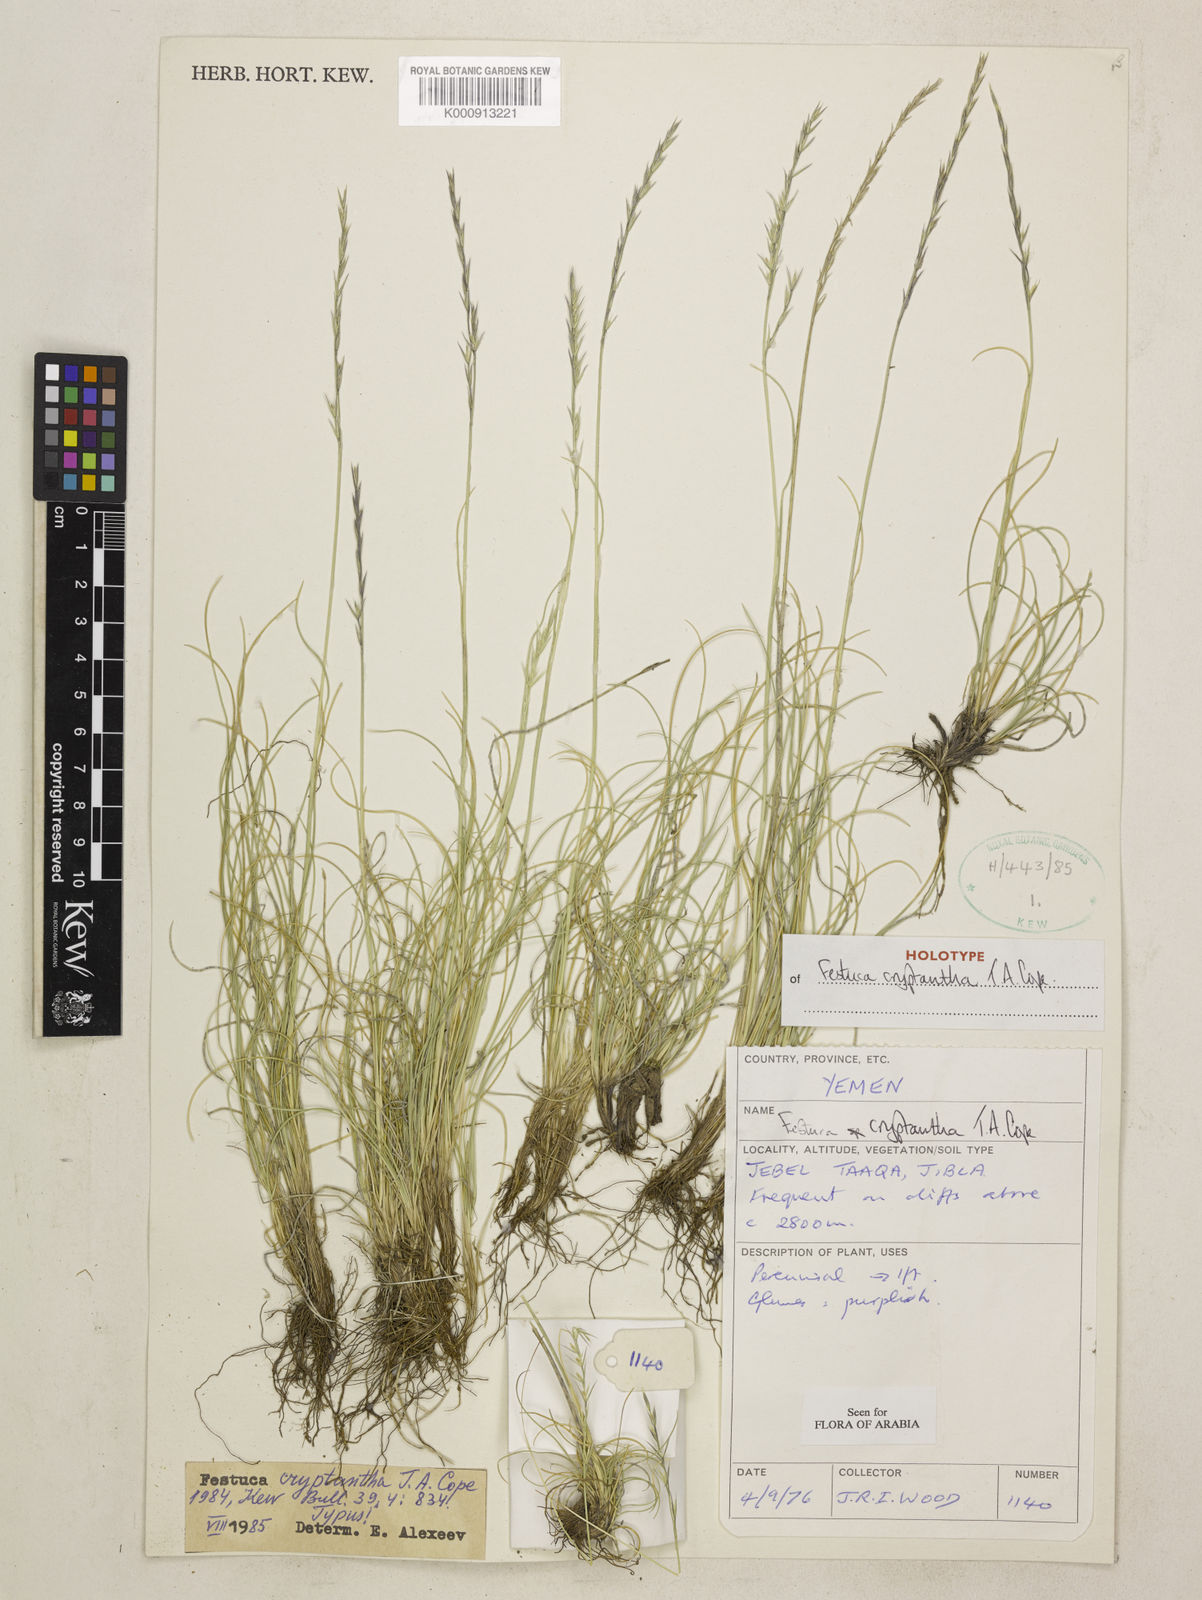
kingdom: Plantae
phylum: Tracheophyta
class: Liliopsida
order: Poales
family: Poaceae
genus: Festuca
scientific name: Festuca cryptantha
